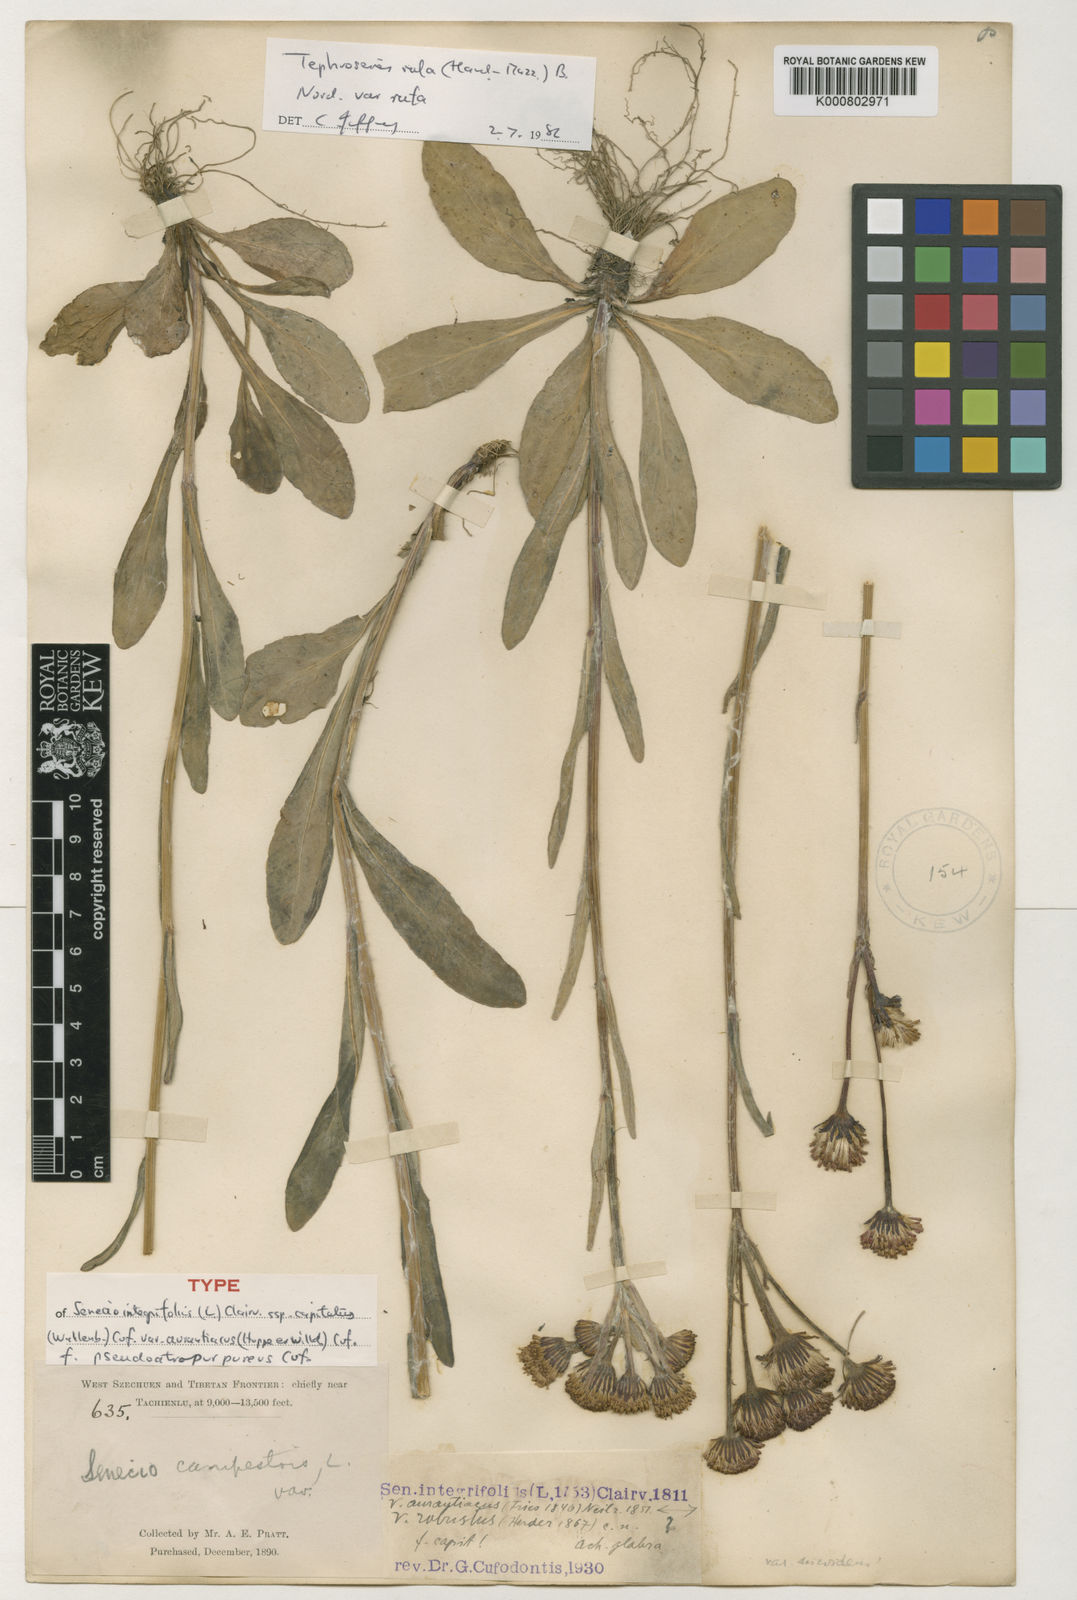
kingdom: Plantae
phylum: Tracheophyta
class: Magnoliopsida
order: Asterales
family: Asteraceae
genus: Tephroseris
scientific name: Tephroseris rufa
